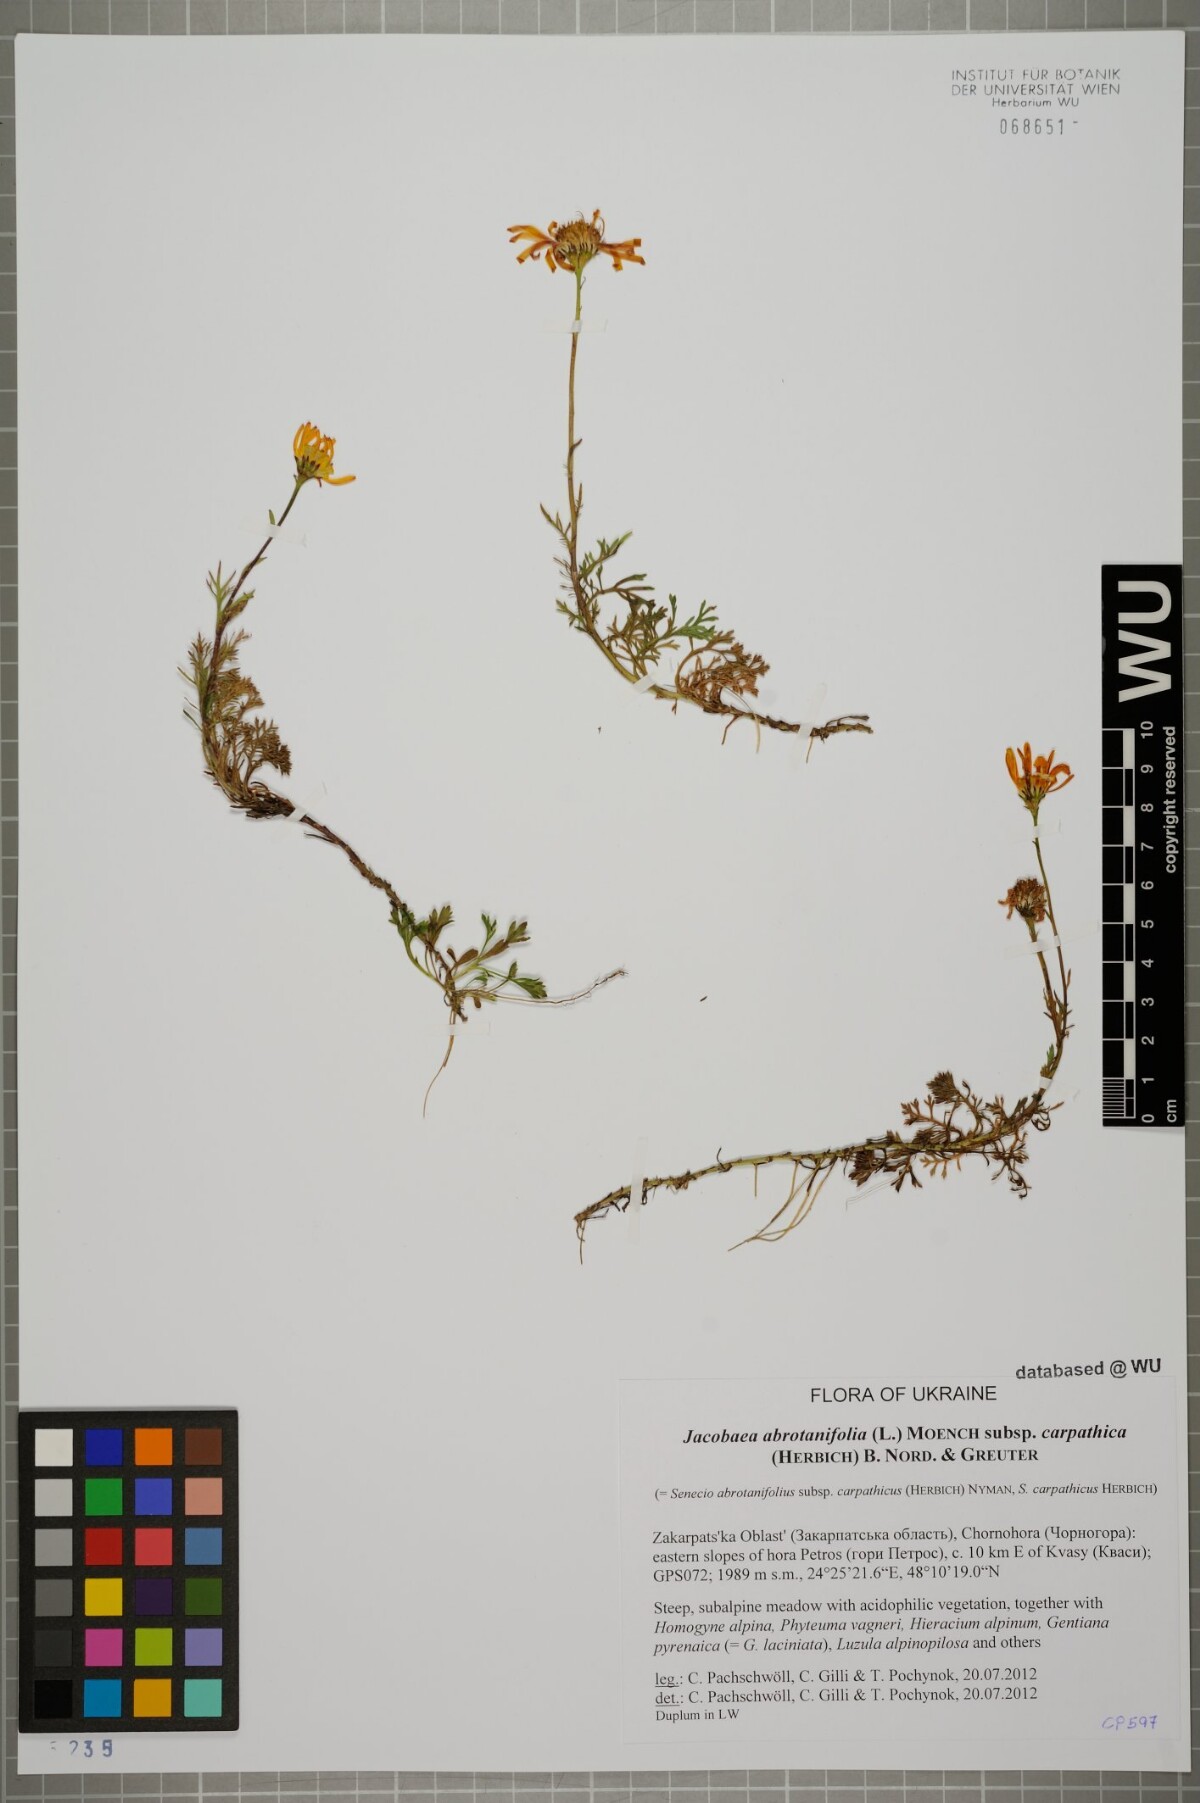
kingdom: Plantae
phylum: Tracheophyta
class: Magnoliopsida
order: Asterales
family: Asteraceae
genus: Jacobaea
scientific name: Jacobaea abrotanifolia
